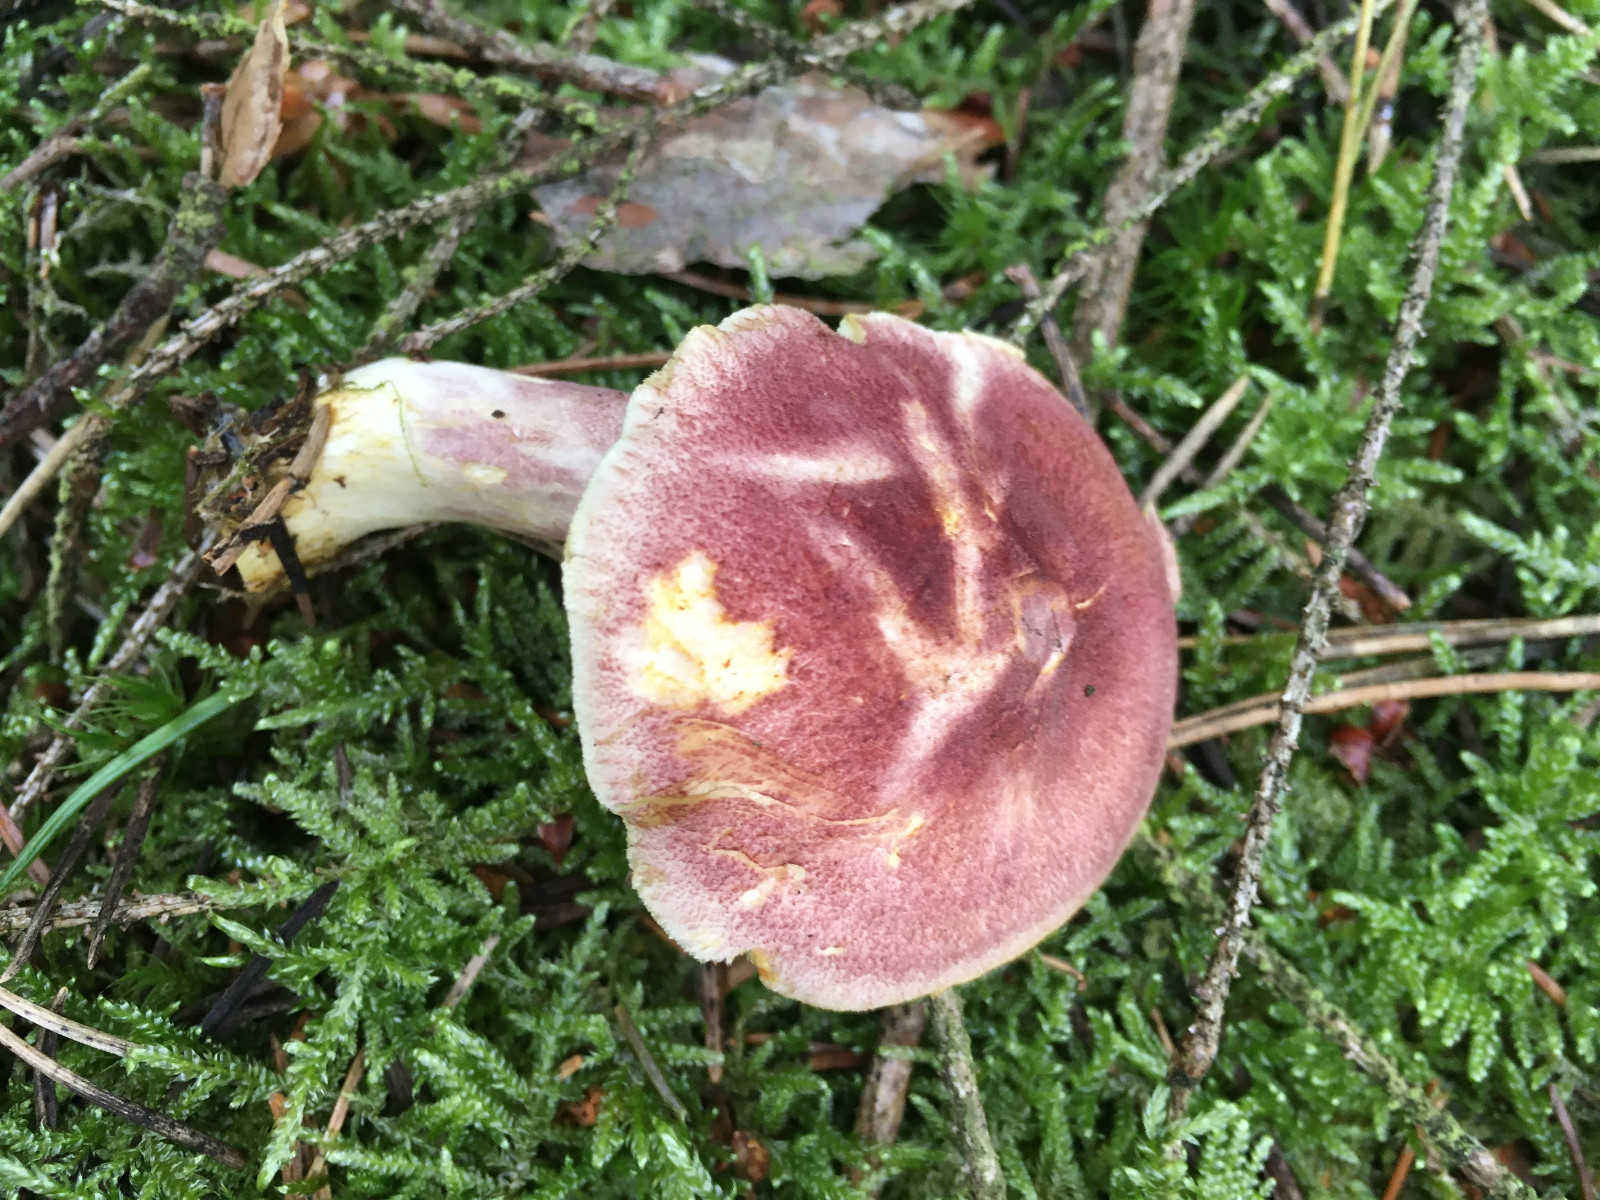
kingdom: Fungi
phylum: Basidiomycota
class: Agaricomycetes
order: Agaricales
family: Tricholomataceae
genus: Tricholomopsis
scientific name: Tricholomopsis rutilans
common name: purpur-væbnerhat
